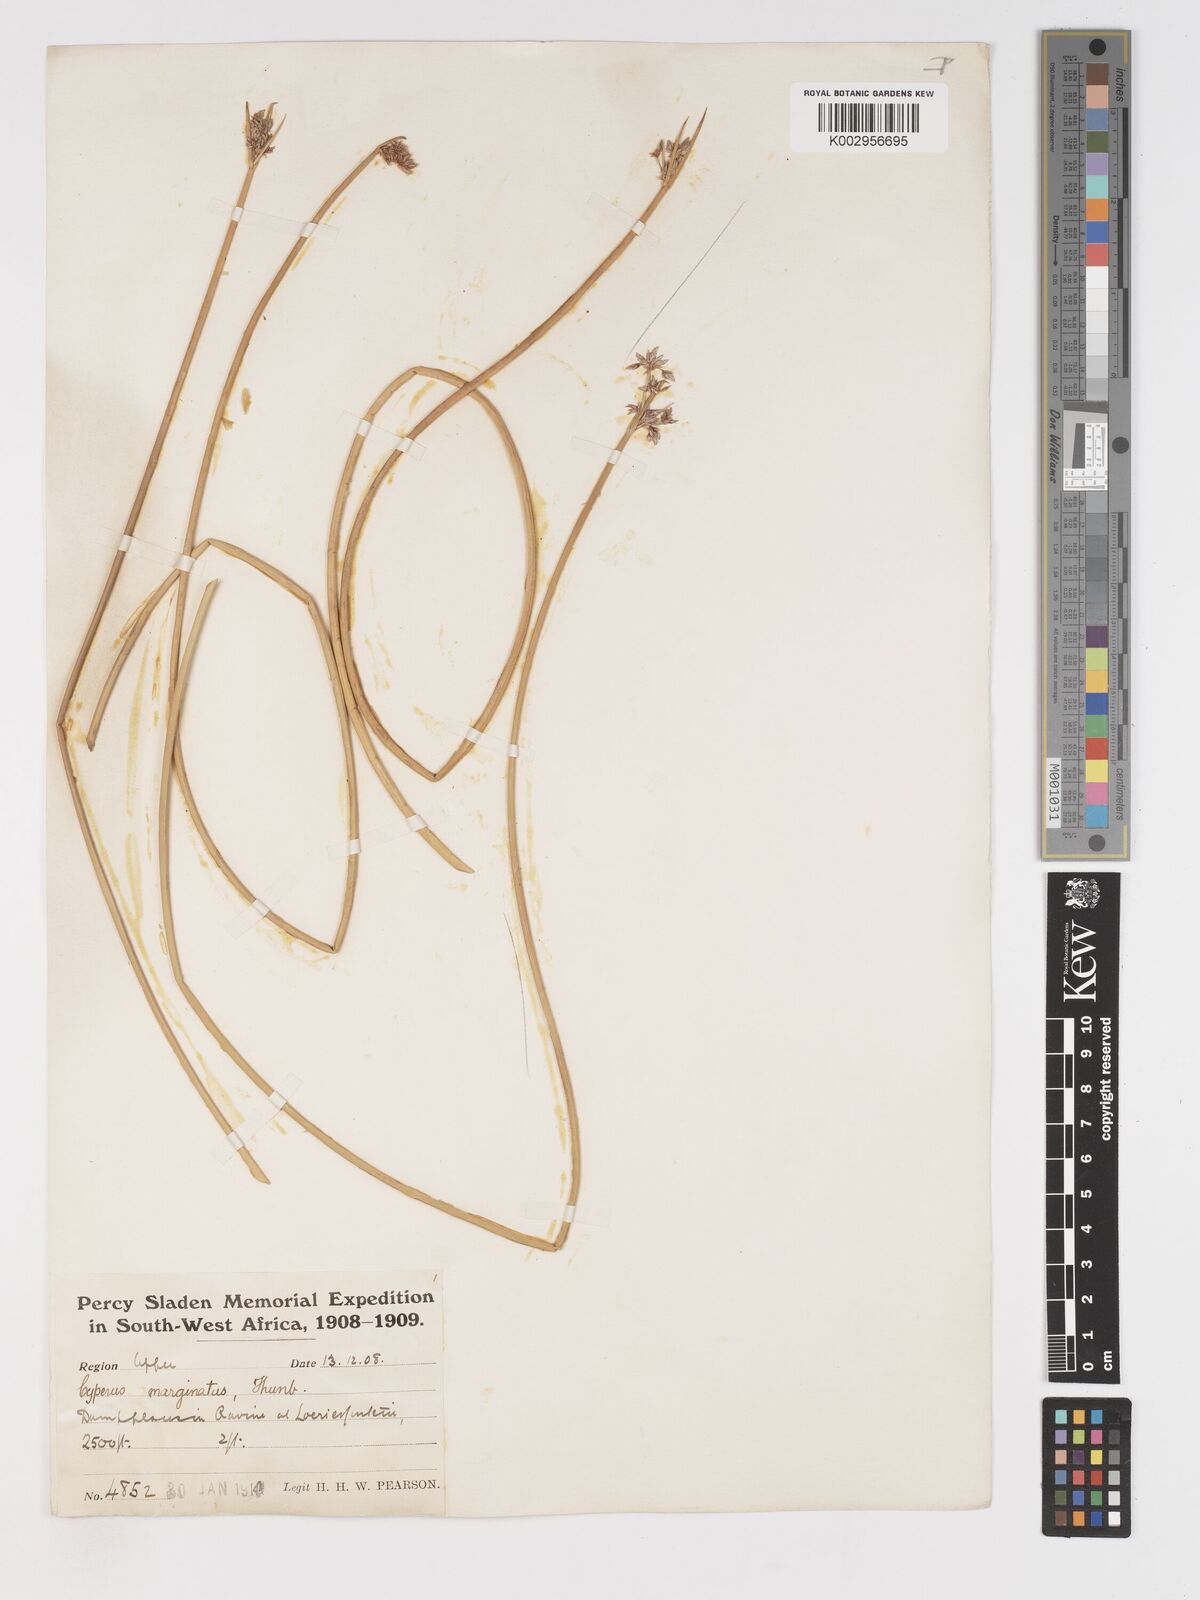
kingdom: Plantae
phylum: Tracheophyta
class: Liliopsida
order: Poales
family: Cyperaceae
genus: Cyperus
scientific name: Cyperus marginatus
